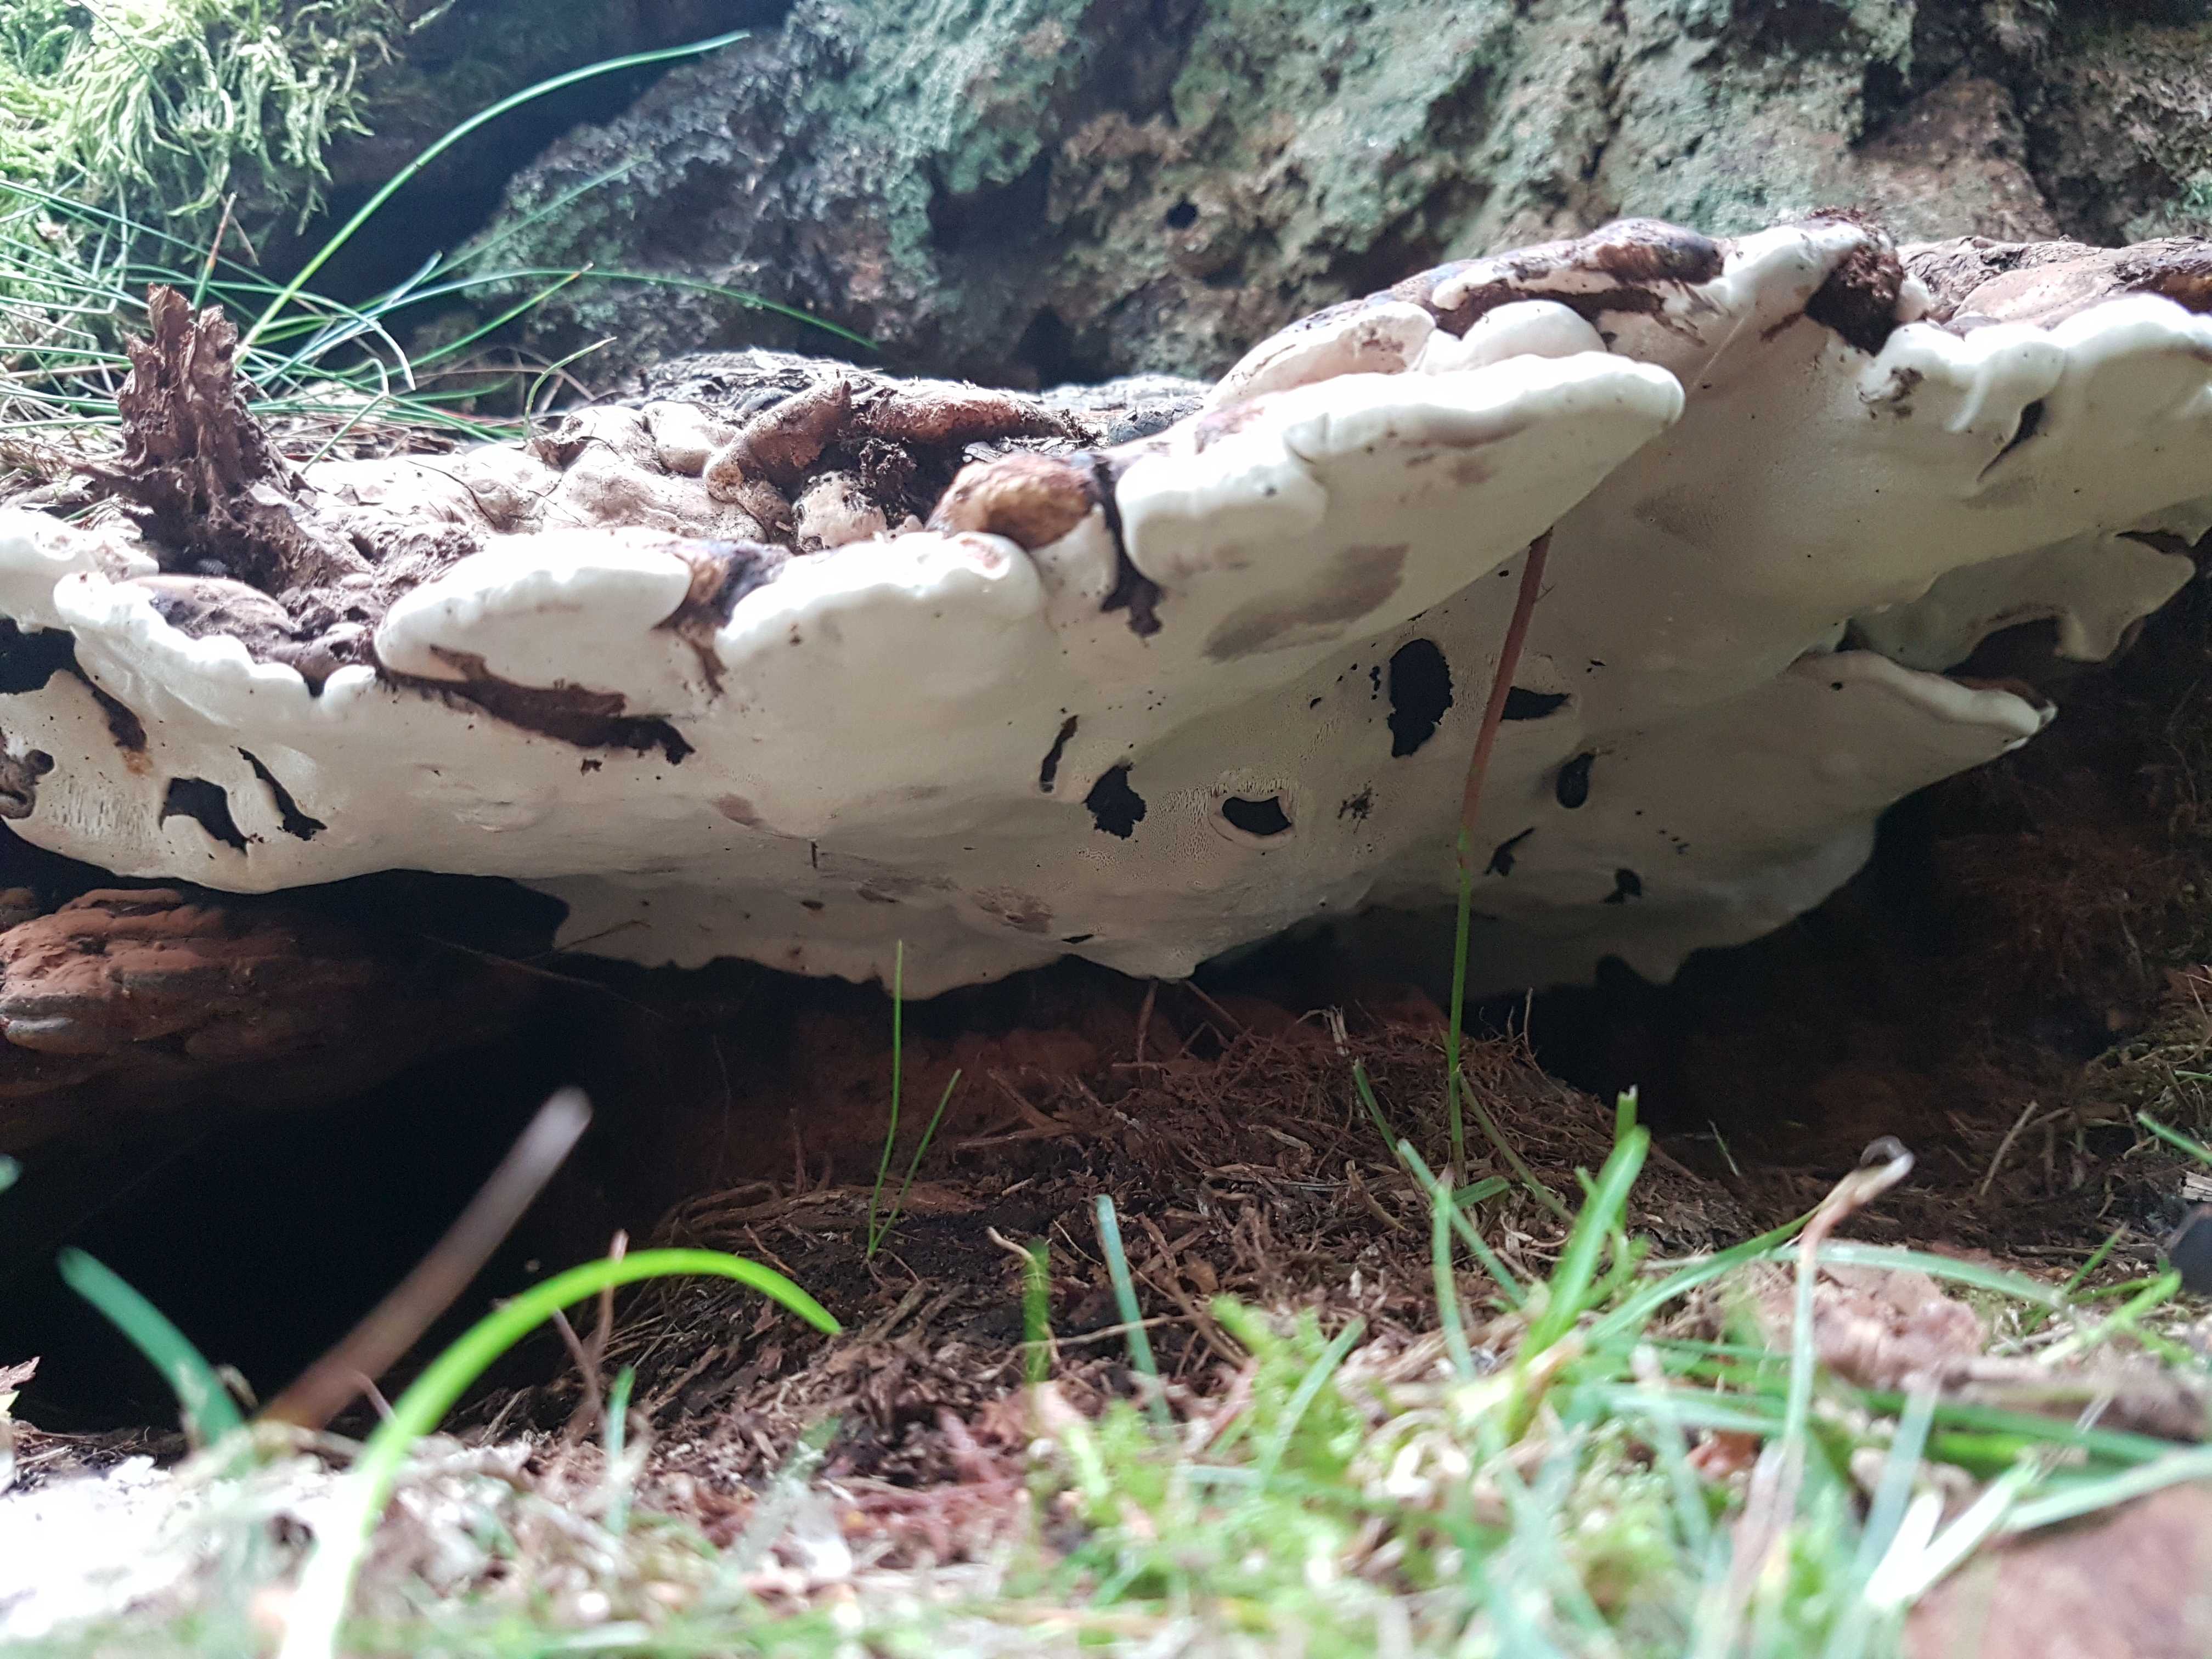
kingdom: Fungi
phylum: Basidiomycota
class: Agaricomycetes
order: Polyporales
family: Polyporaceae
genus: Ganoderma
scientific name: Ganoderma applanatum
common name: flad lakporesvamp
